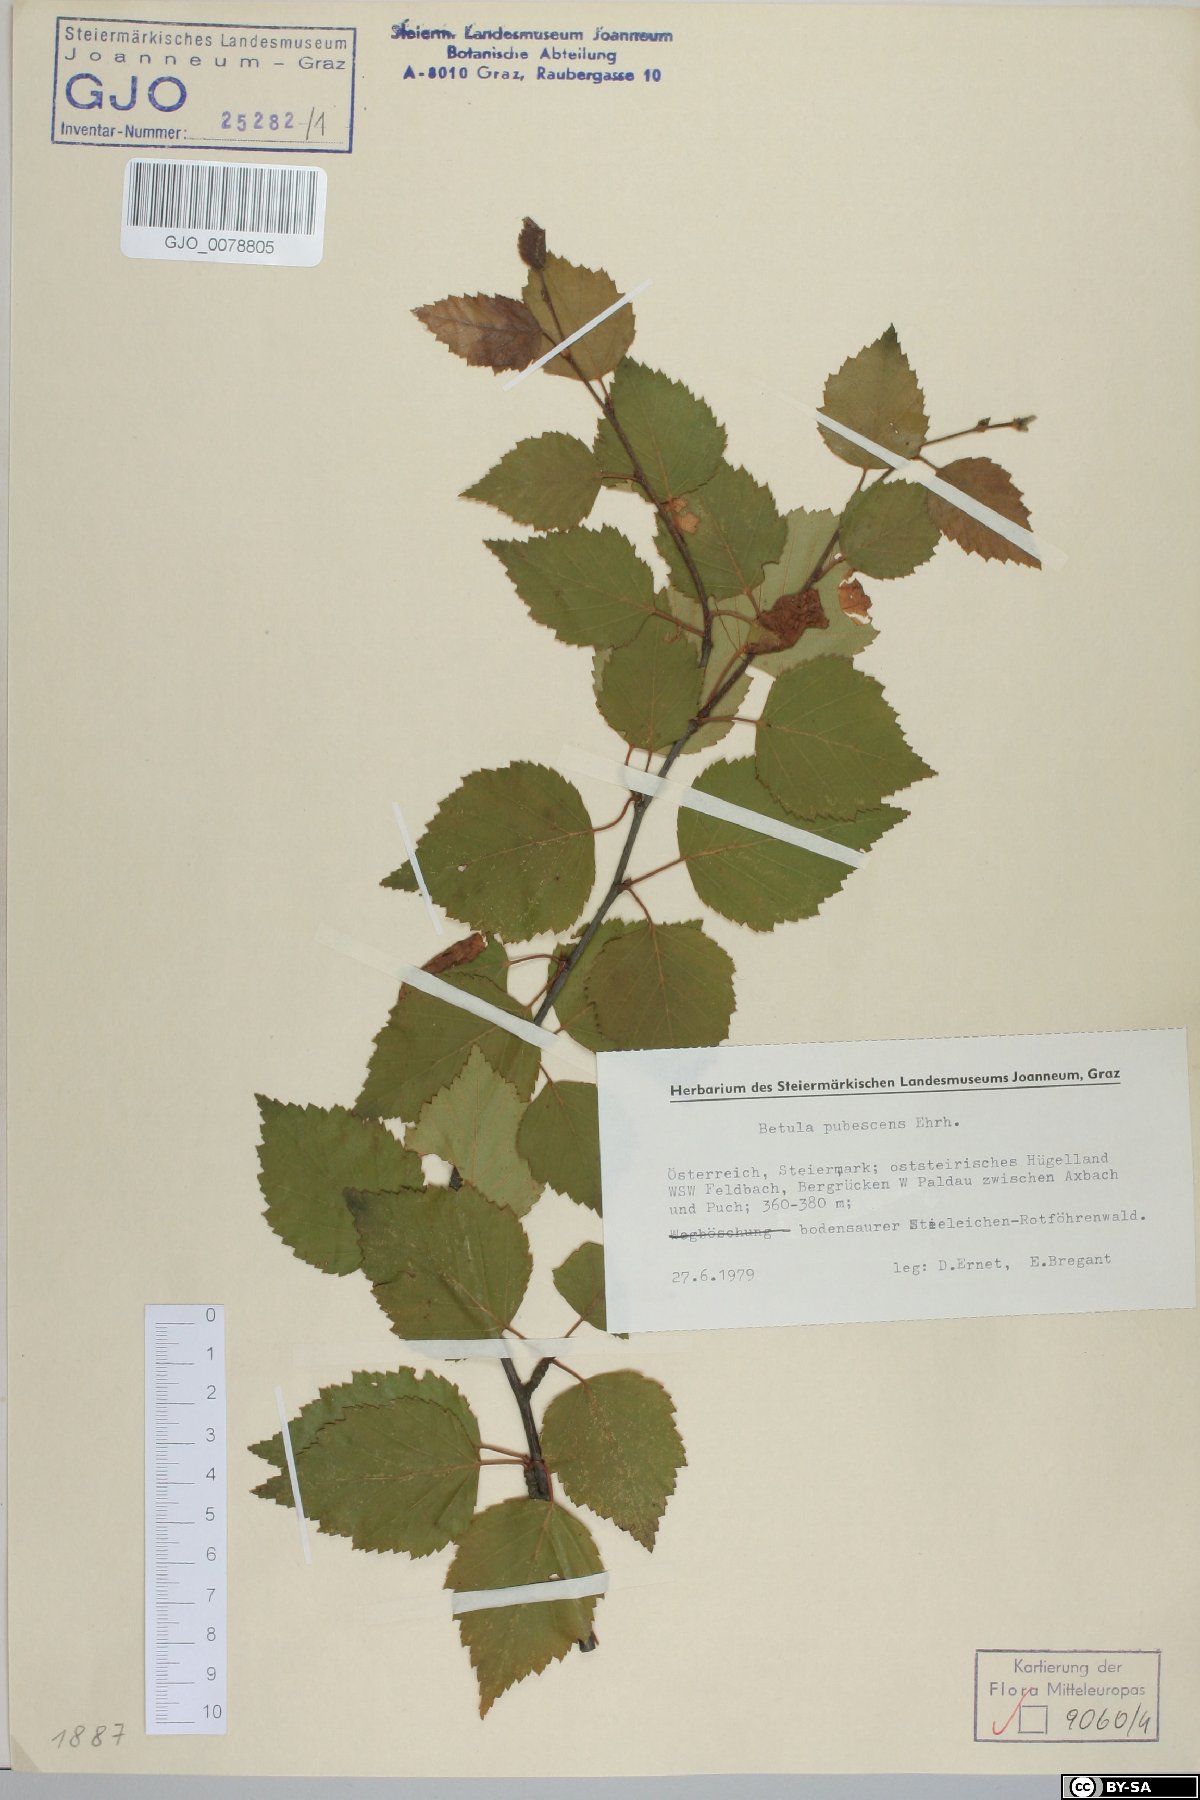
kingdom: Plantae
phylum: Tracheophyta
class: Magnoliopsida
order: Fagales
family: Betulaceae
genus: Betula
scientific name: Betula pubescens
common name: Downy birch
